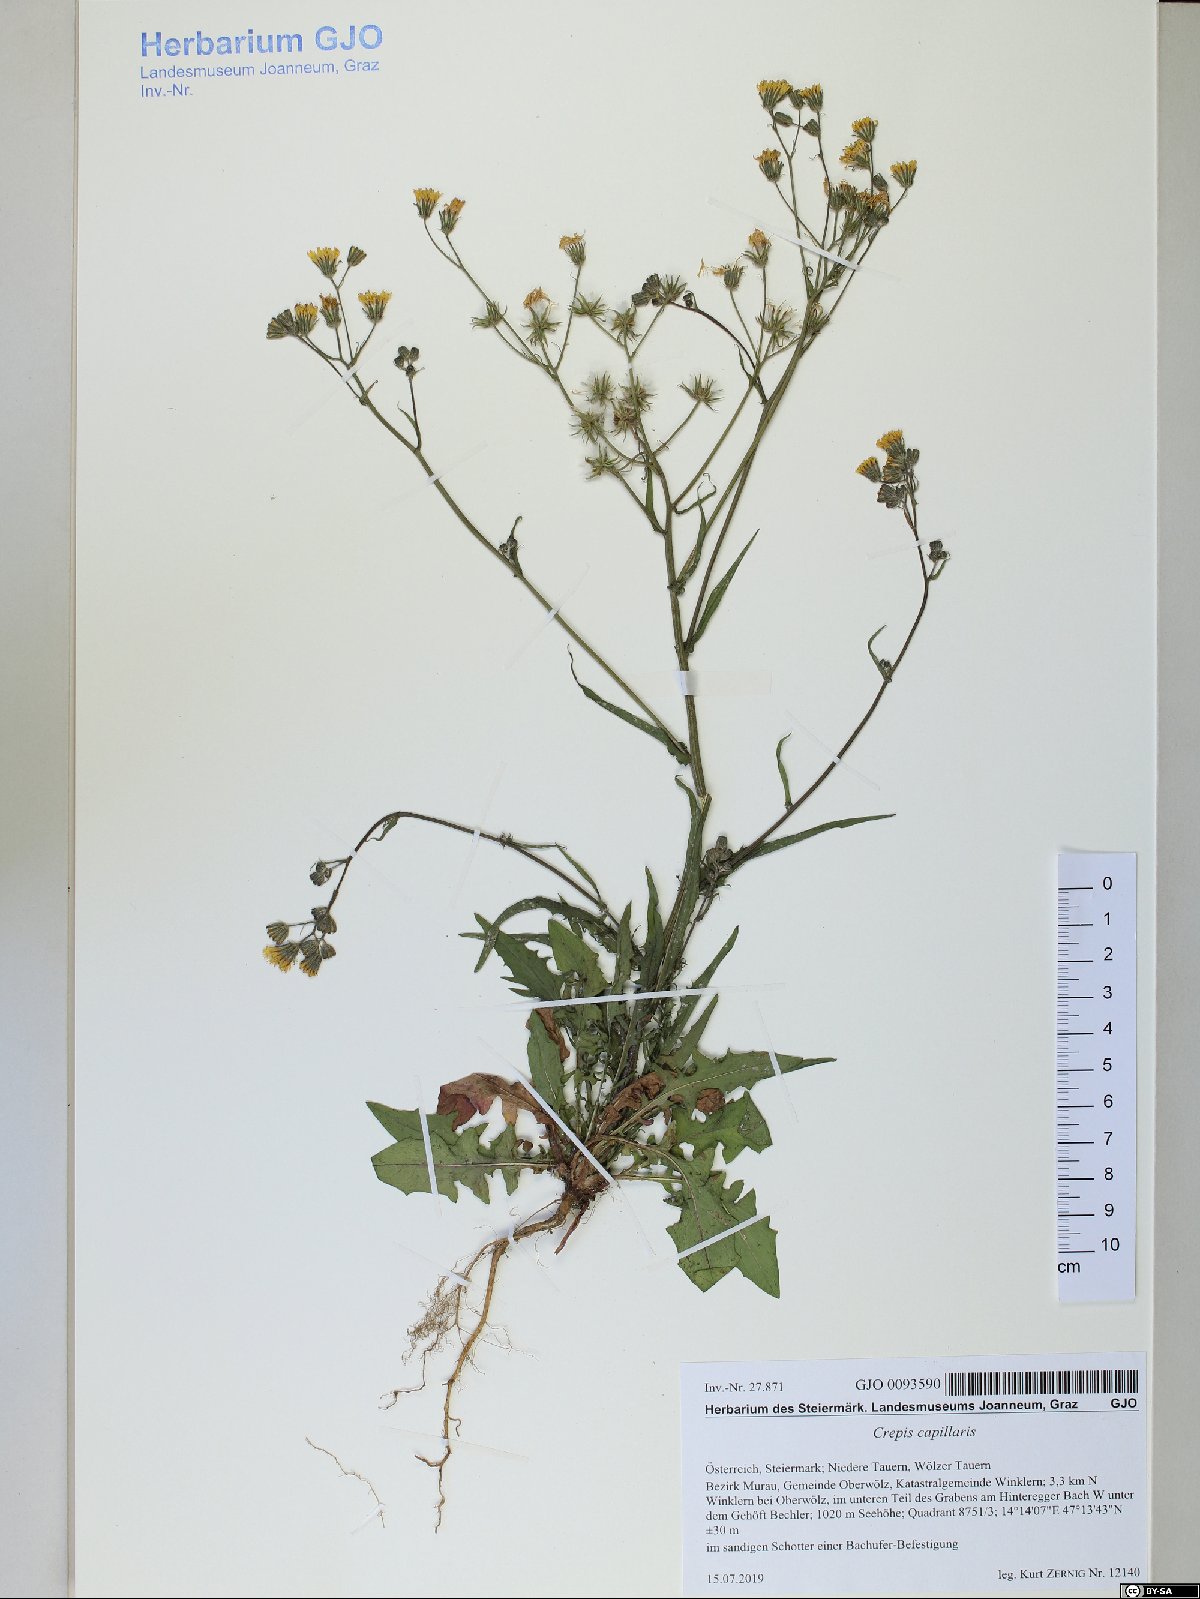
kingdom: Plantae
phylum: Tracheophyta
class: Magnoliopsida
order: Asterales
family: Asteraceae
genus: Crepis
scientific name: Crepis capillaris
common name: Smooth hawksbeard
